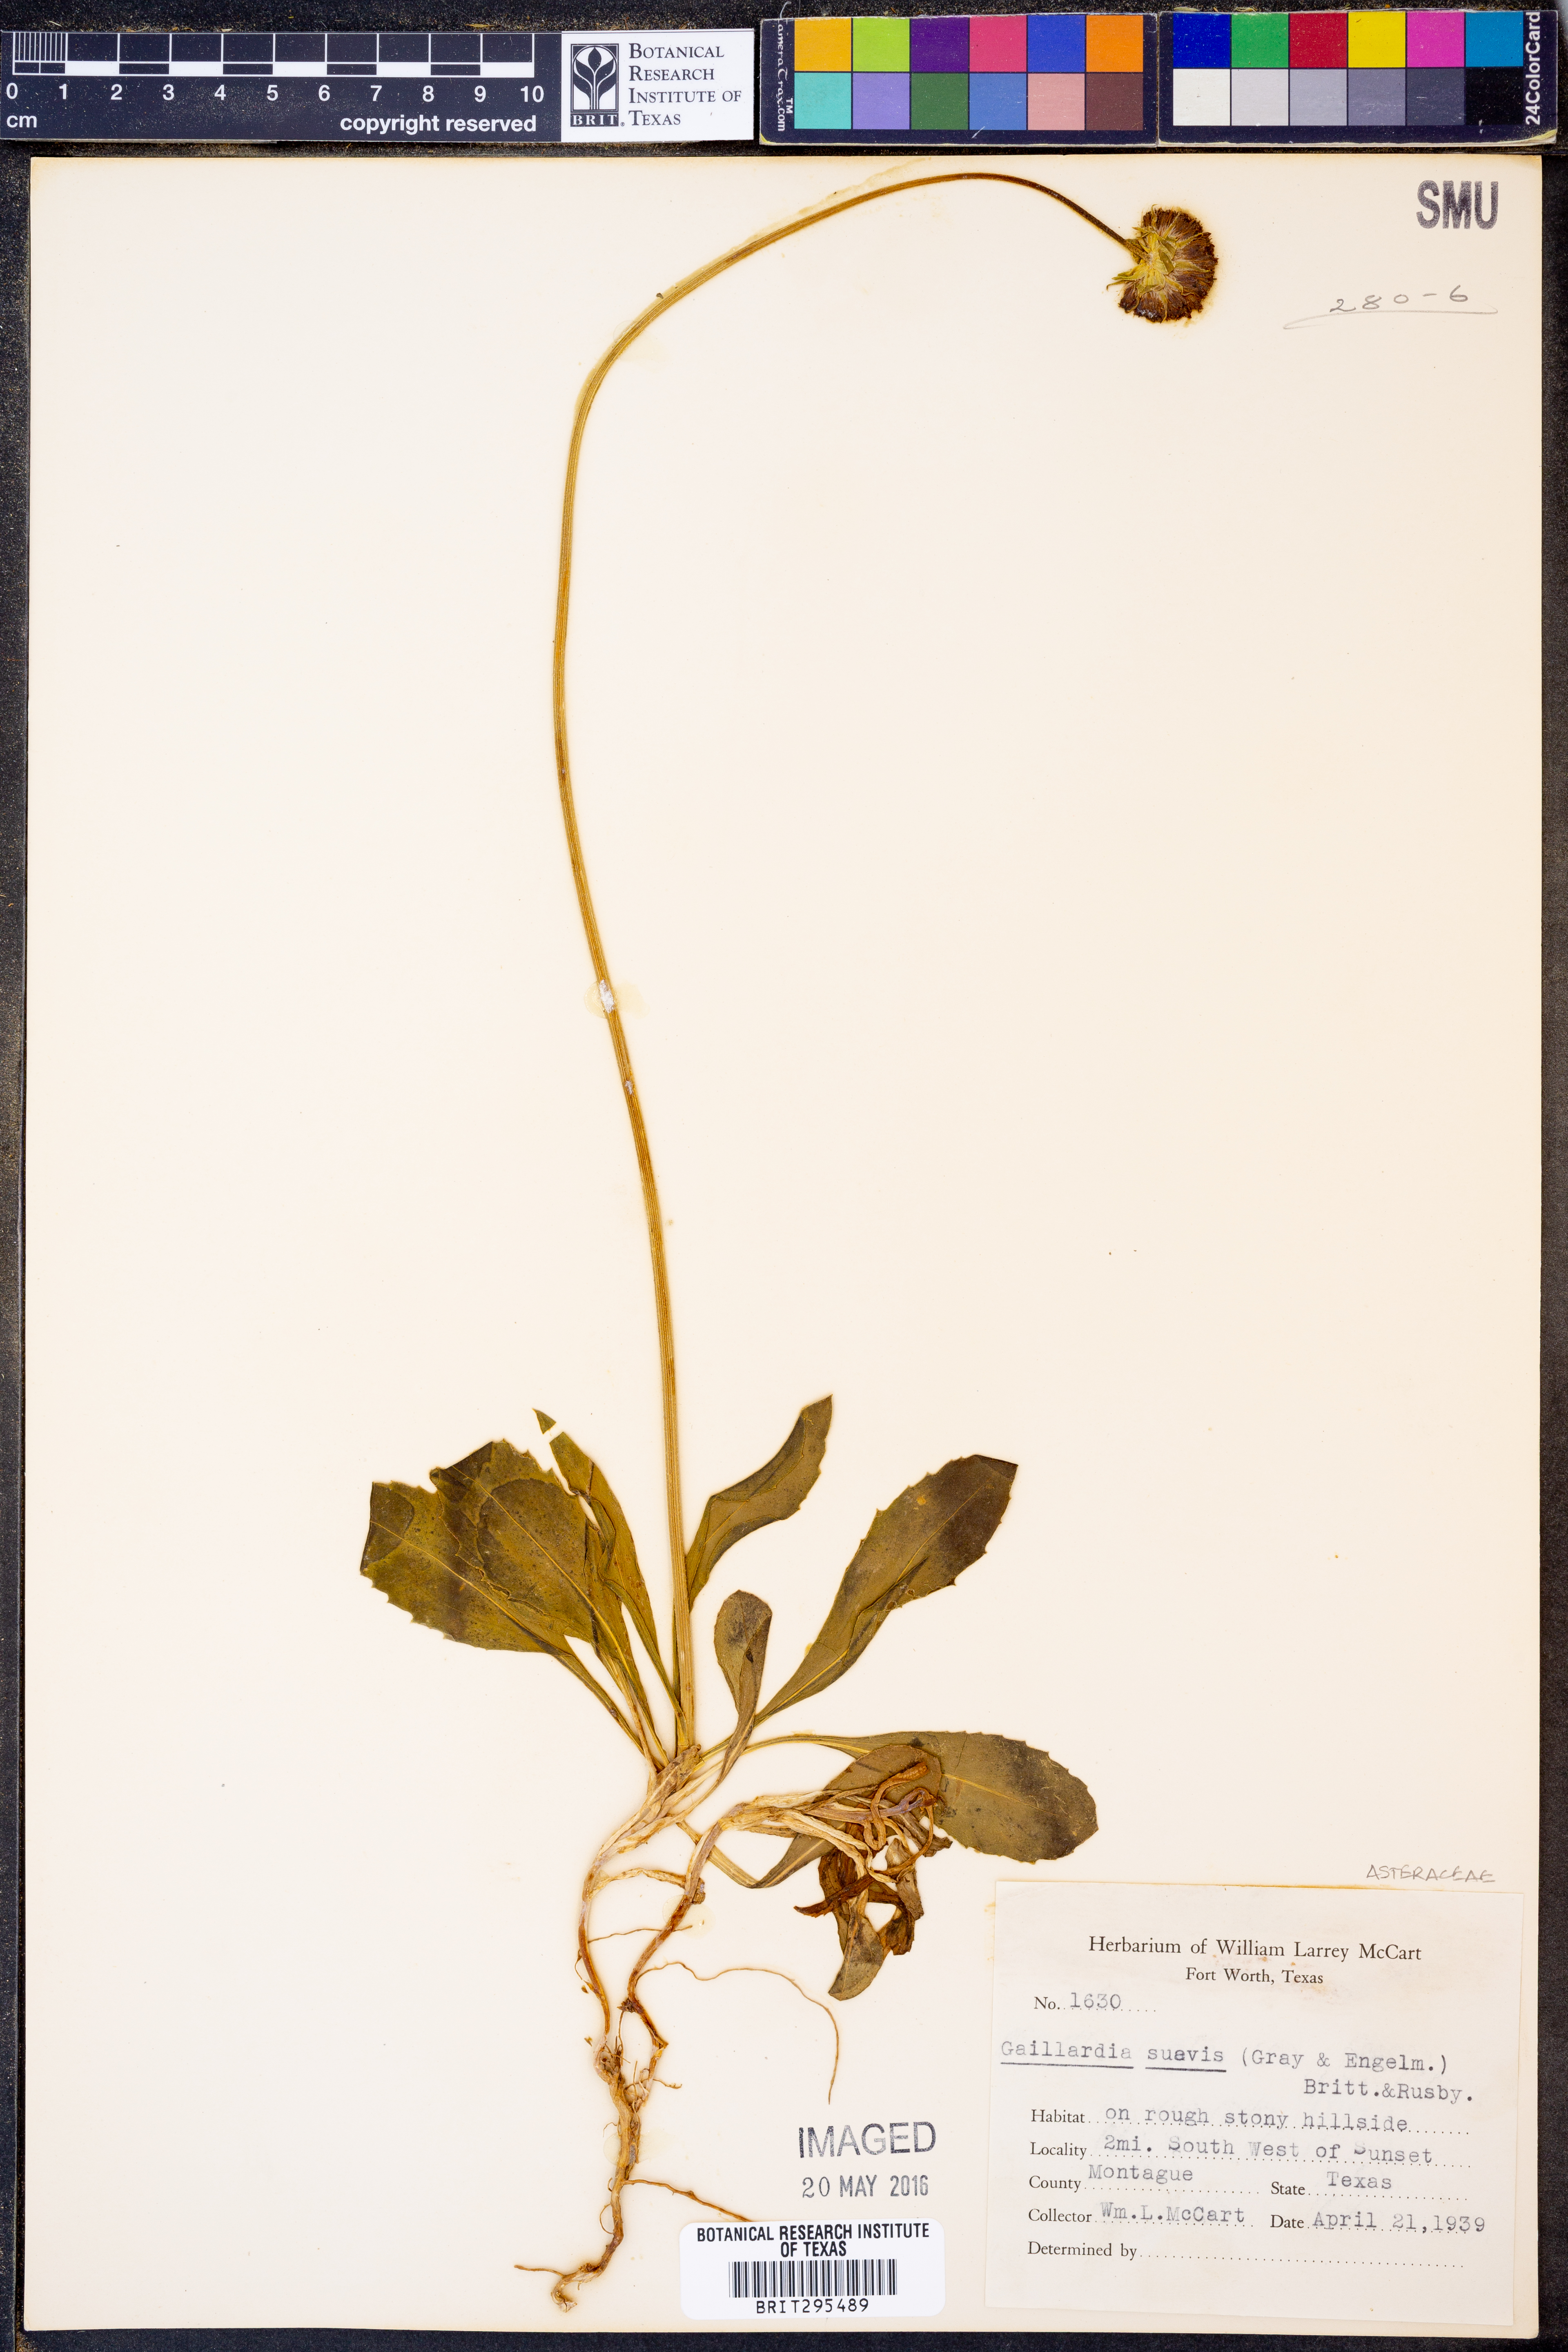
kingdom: Plantae
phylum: Tracheophyta
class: Magnoliopsida
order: Asterales
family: Asteraceae
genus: Gaillardia
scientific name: Gaillardia suavis
